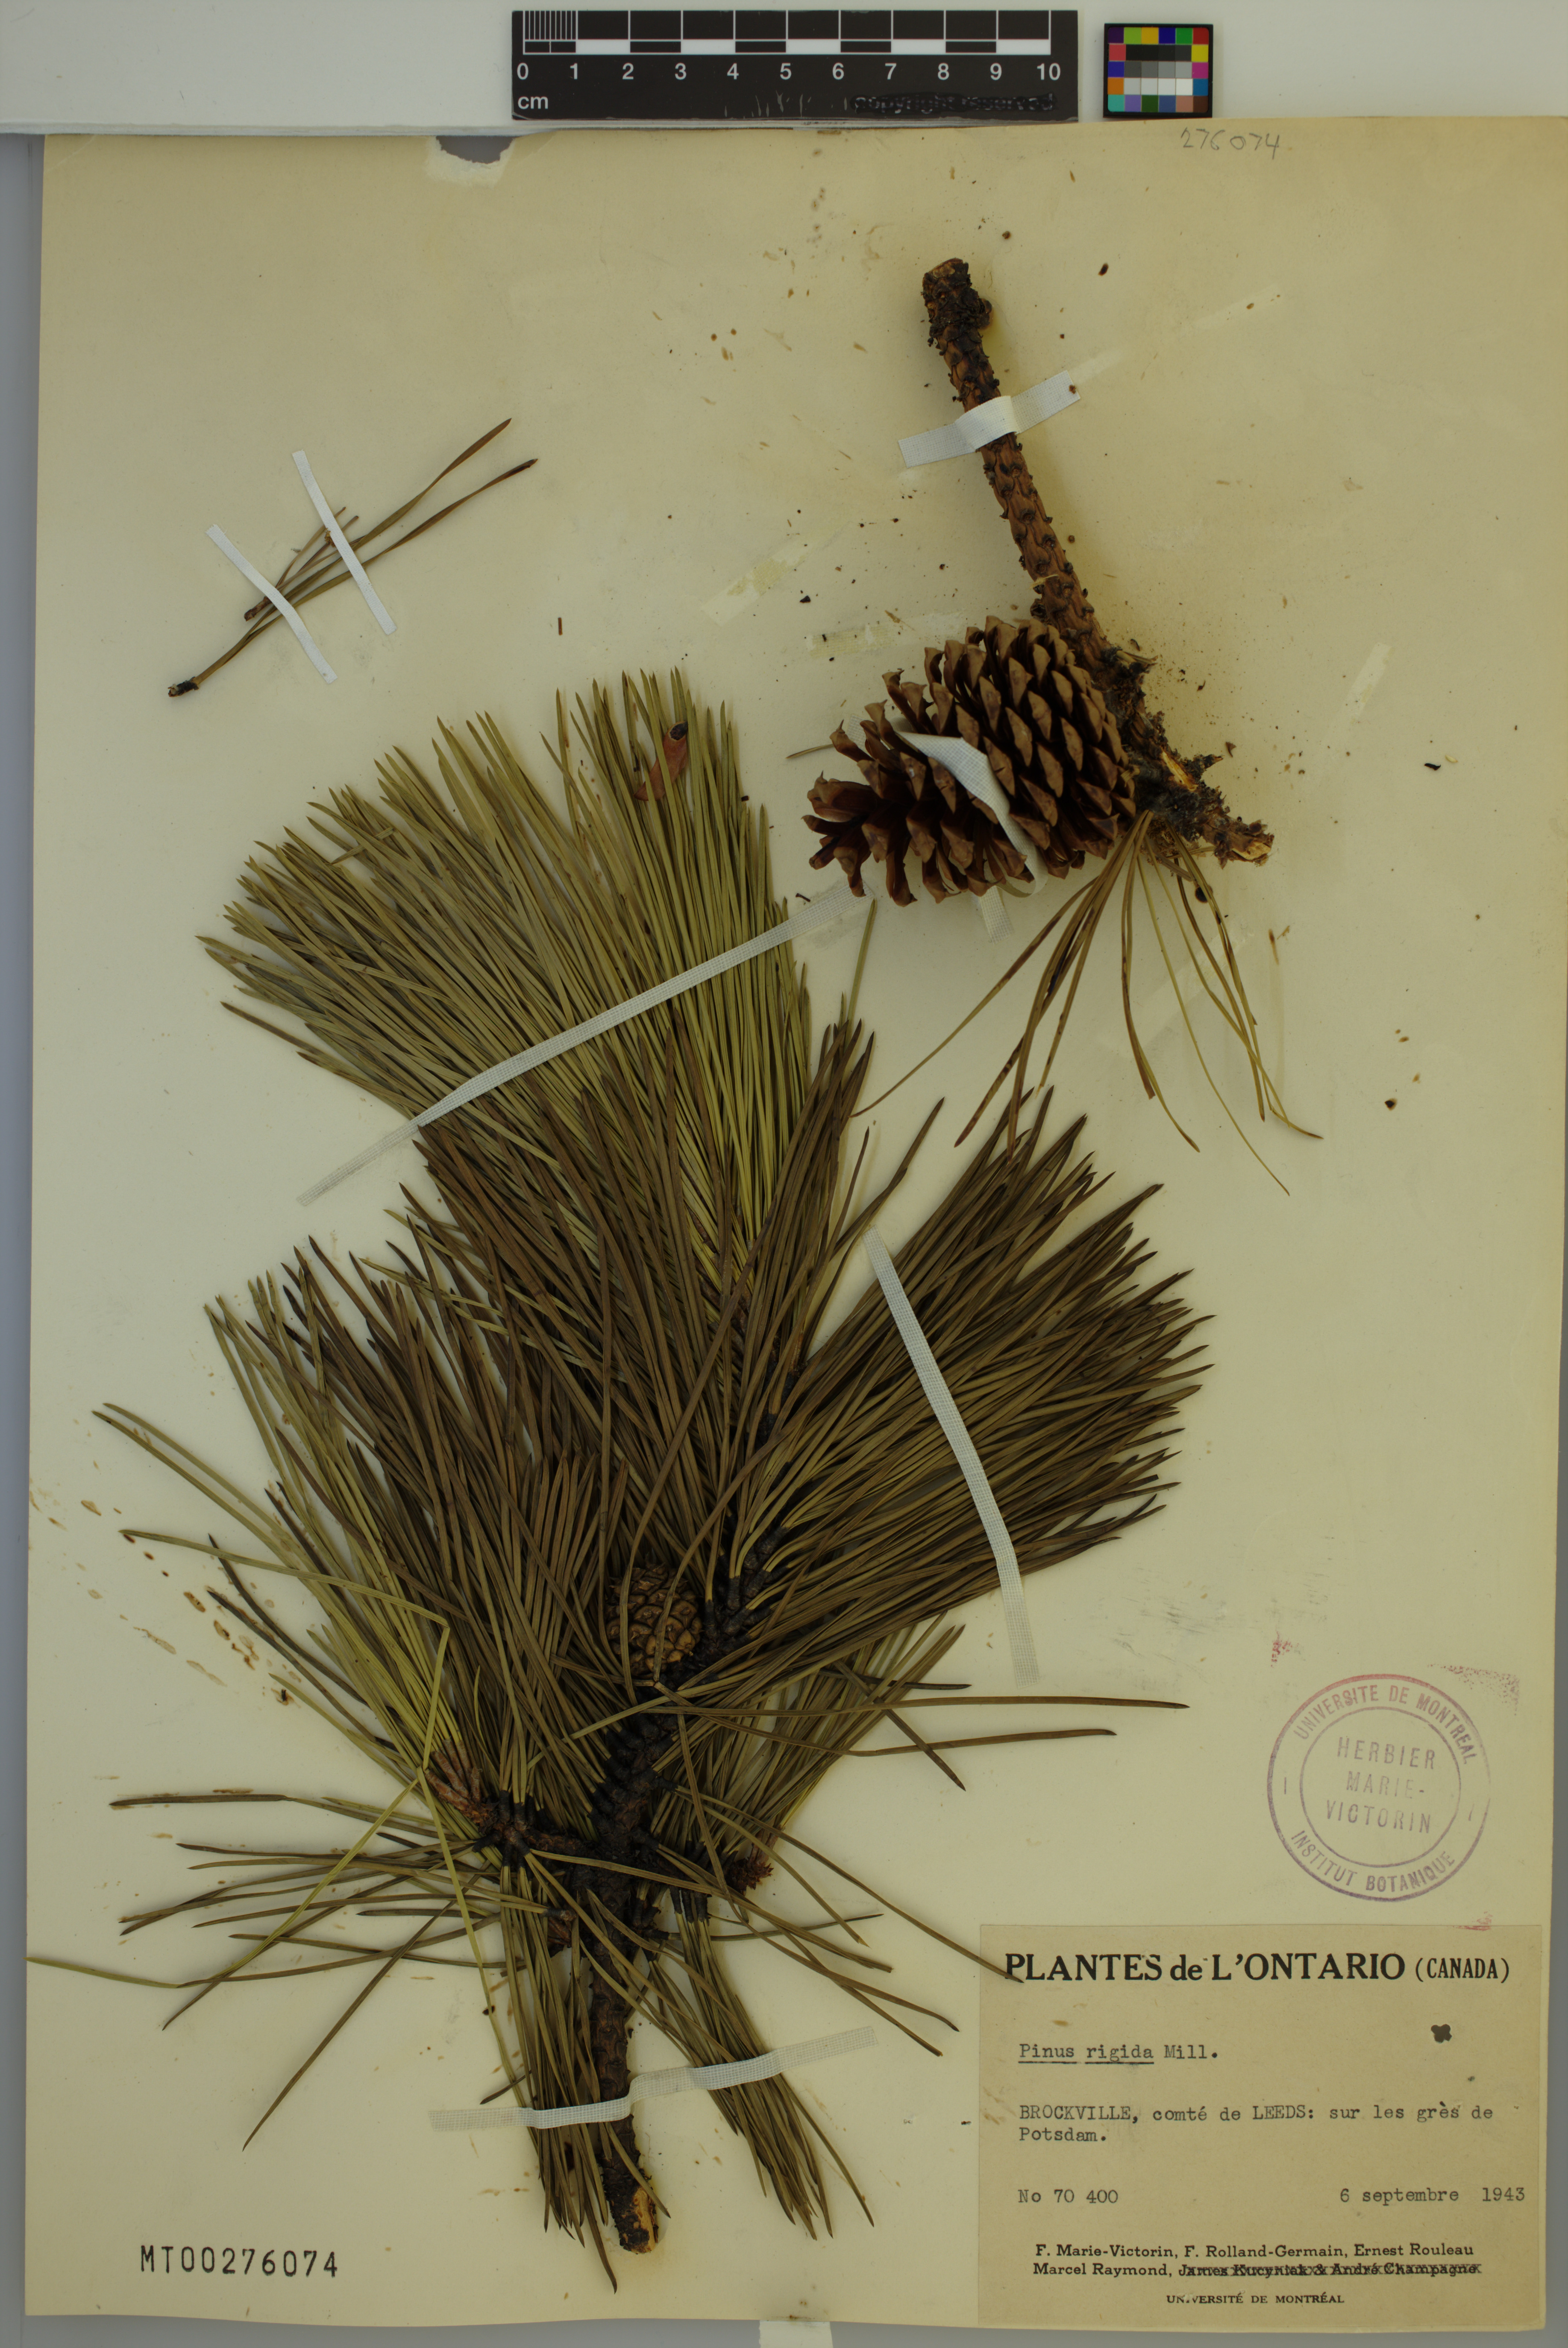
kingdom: Plantae
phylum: Tracheophyta
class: Pinopsida
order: Pinales
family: Pinaceae
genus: Pinus
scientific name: Pinus rigida
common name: Pitch pine
